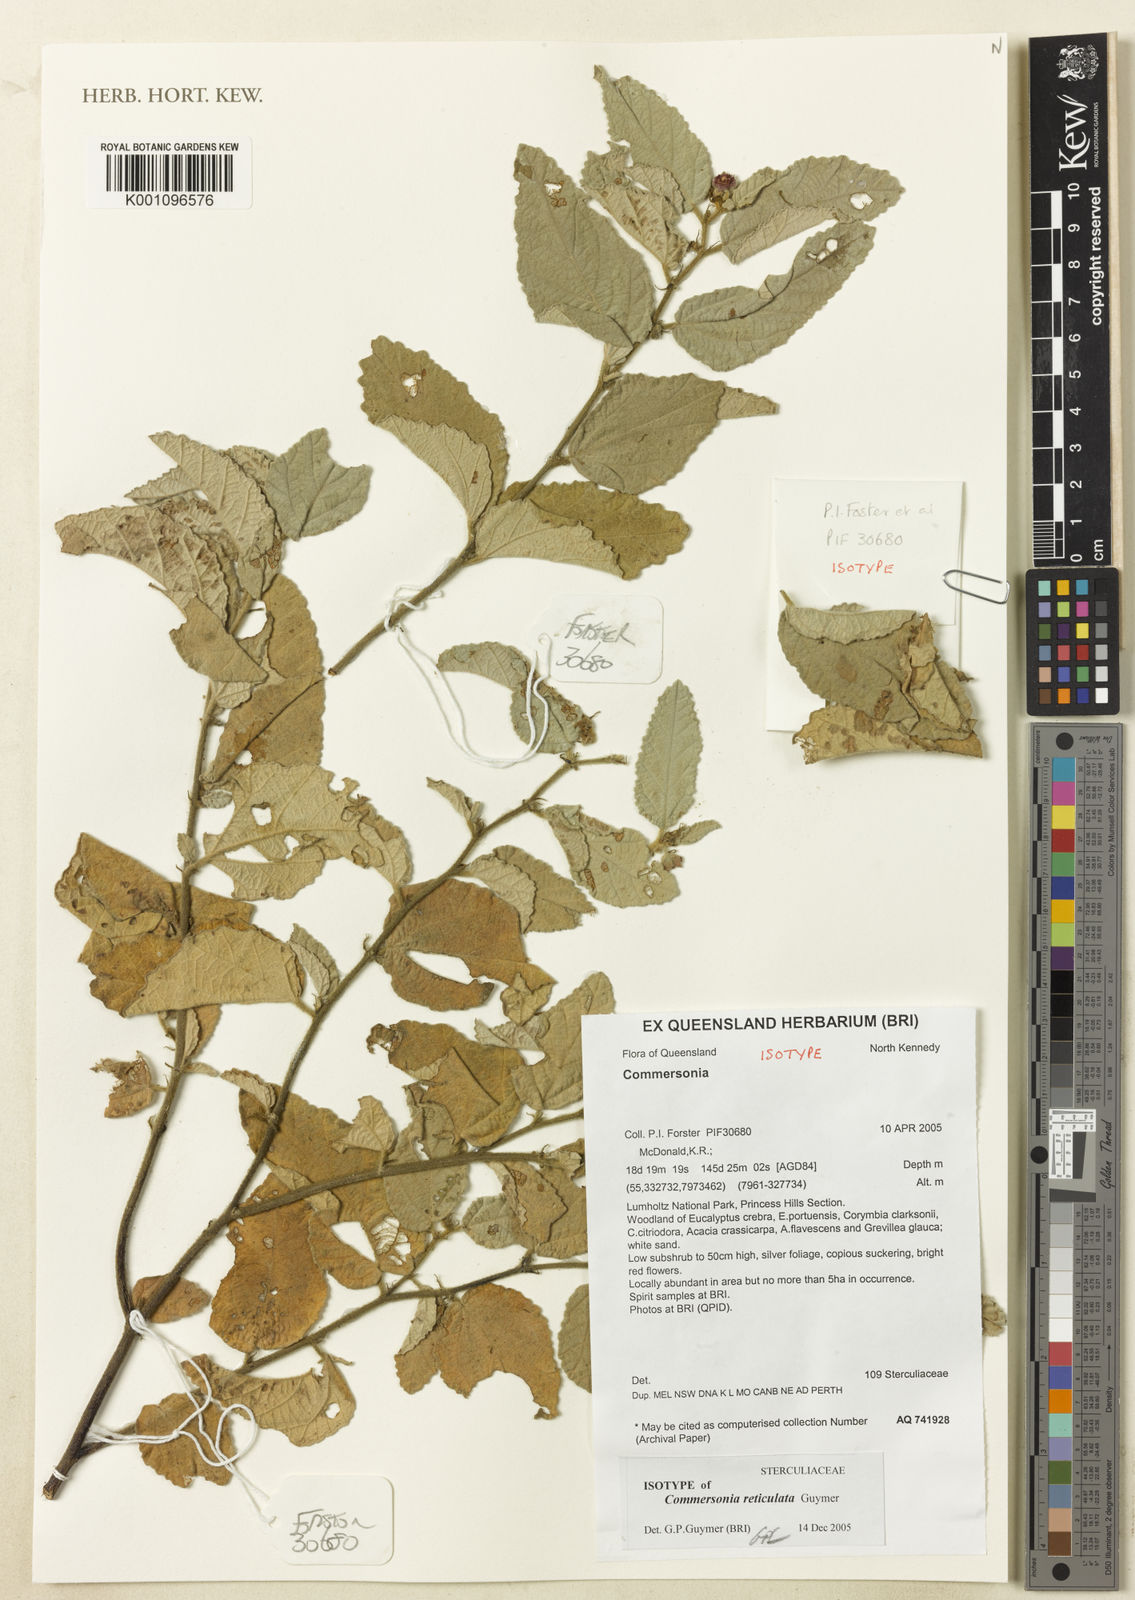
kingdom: Plantae
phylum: Tracheophyta
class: Magnoliopsida
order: Malvales
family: Malvaceae
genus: Androcalva
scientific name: Androcalva reticulata
